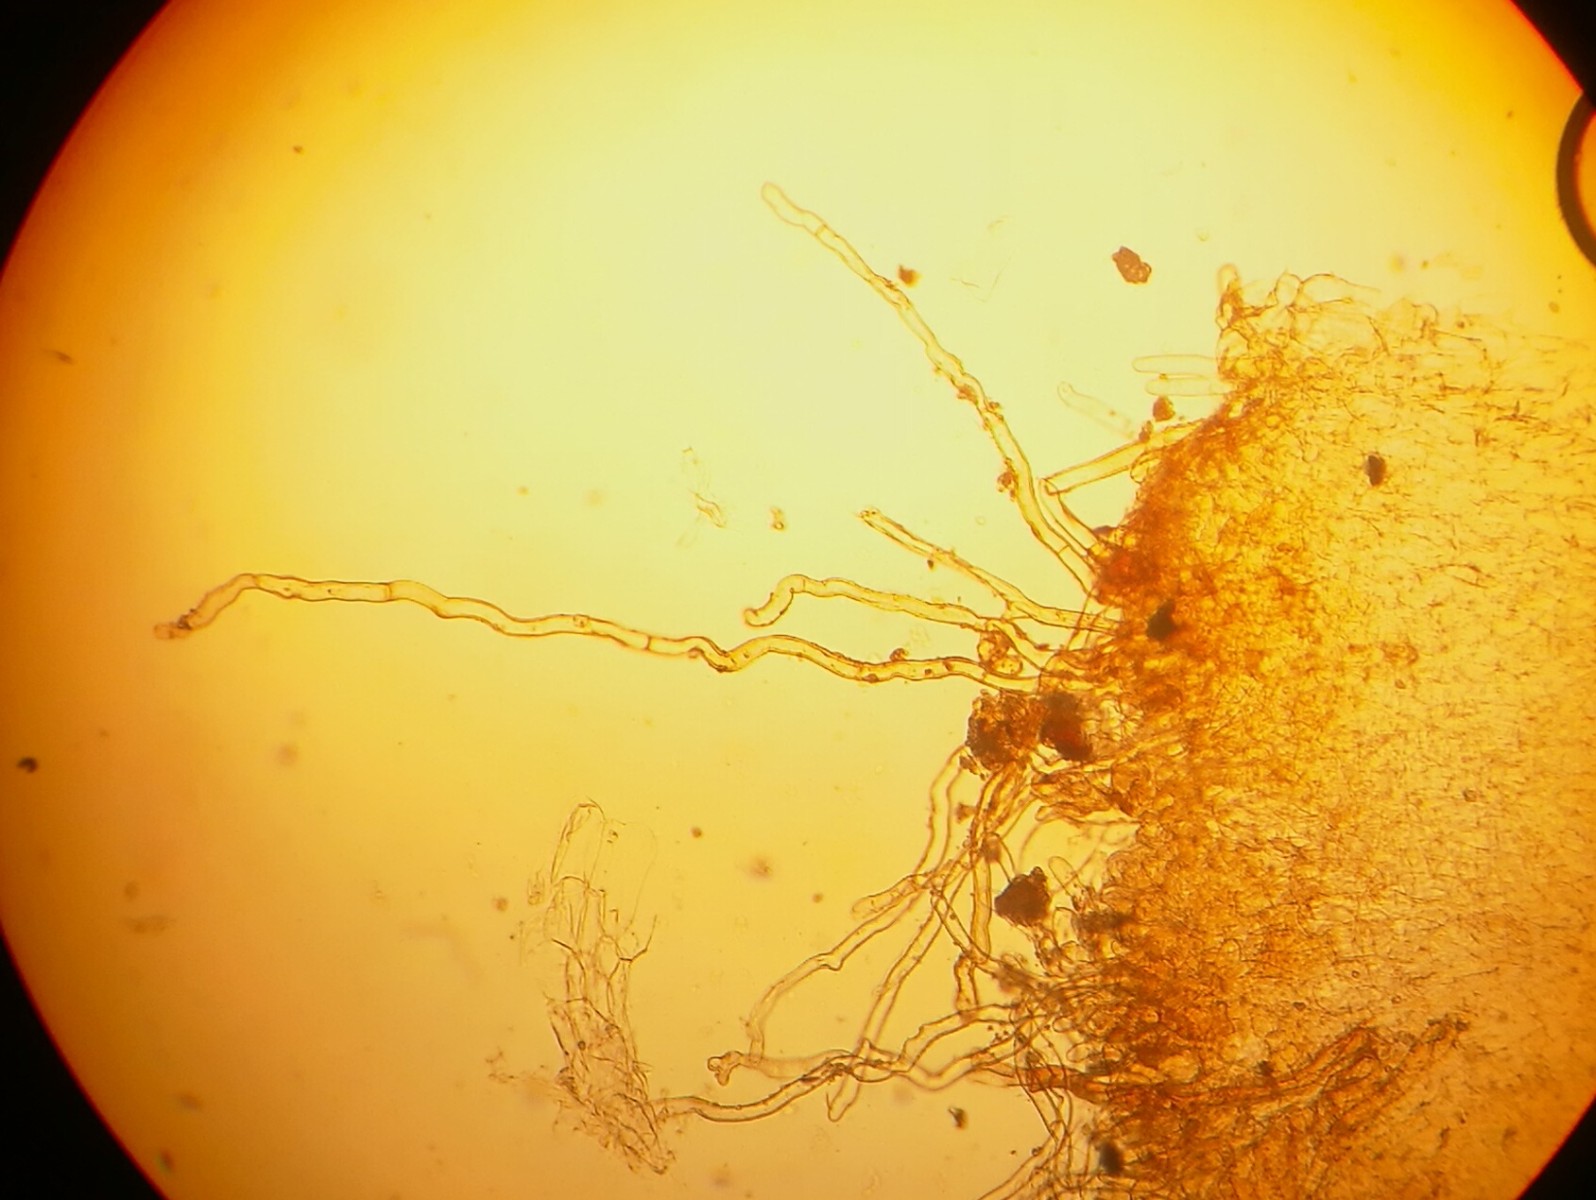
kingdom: Fungi
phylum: Ascomycota
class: Pezizomycetes
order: Pezizales
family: Pyronemataceae
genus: Geopora
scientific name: Geopora foliacea
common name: høst-jordbæger
